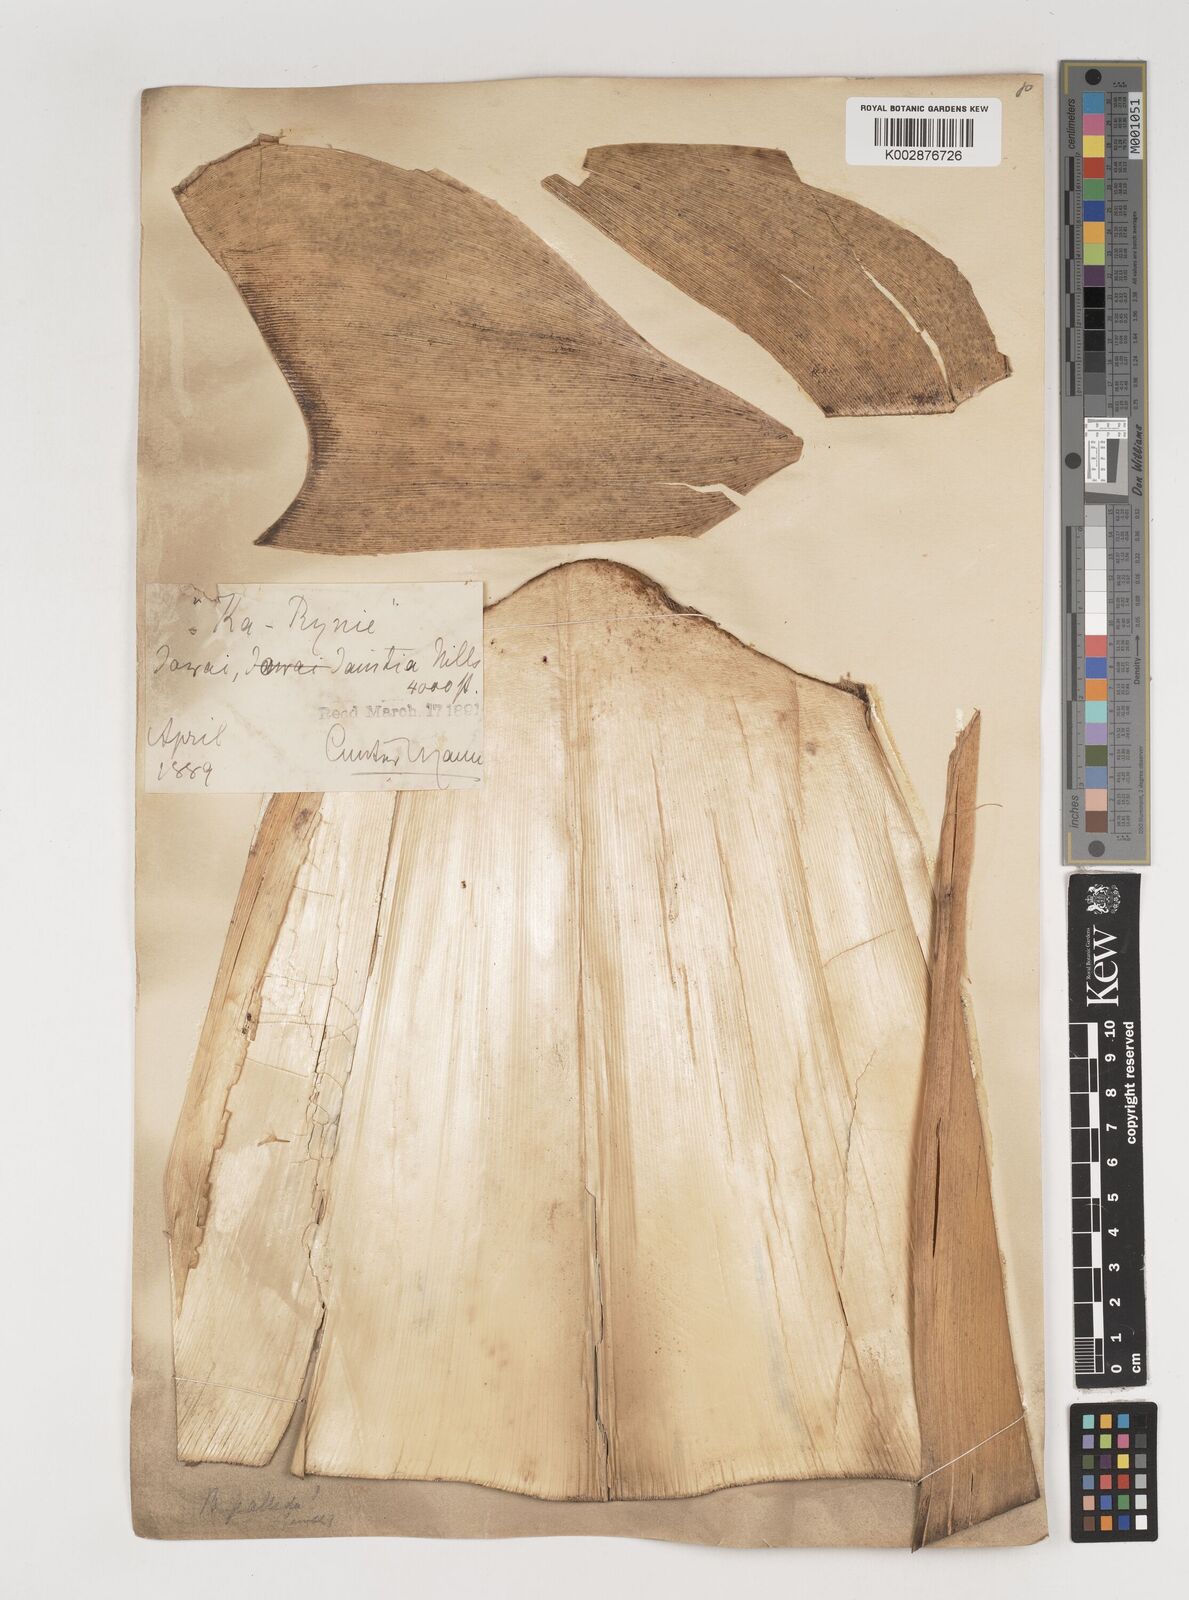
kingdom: Plantae
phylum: Tracheophyta
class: Liliopsida
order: Poales
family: Poaceae
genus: Bambusa
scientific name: Bambusa pallida
